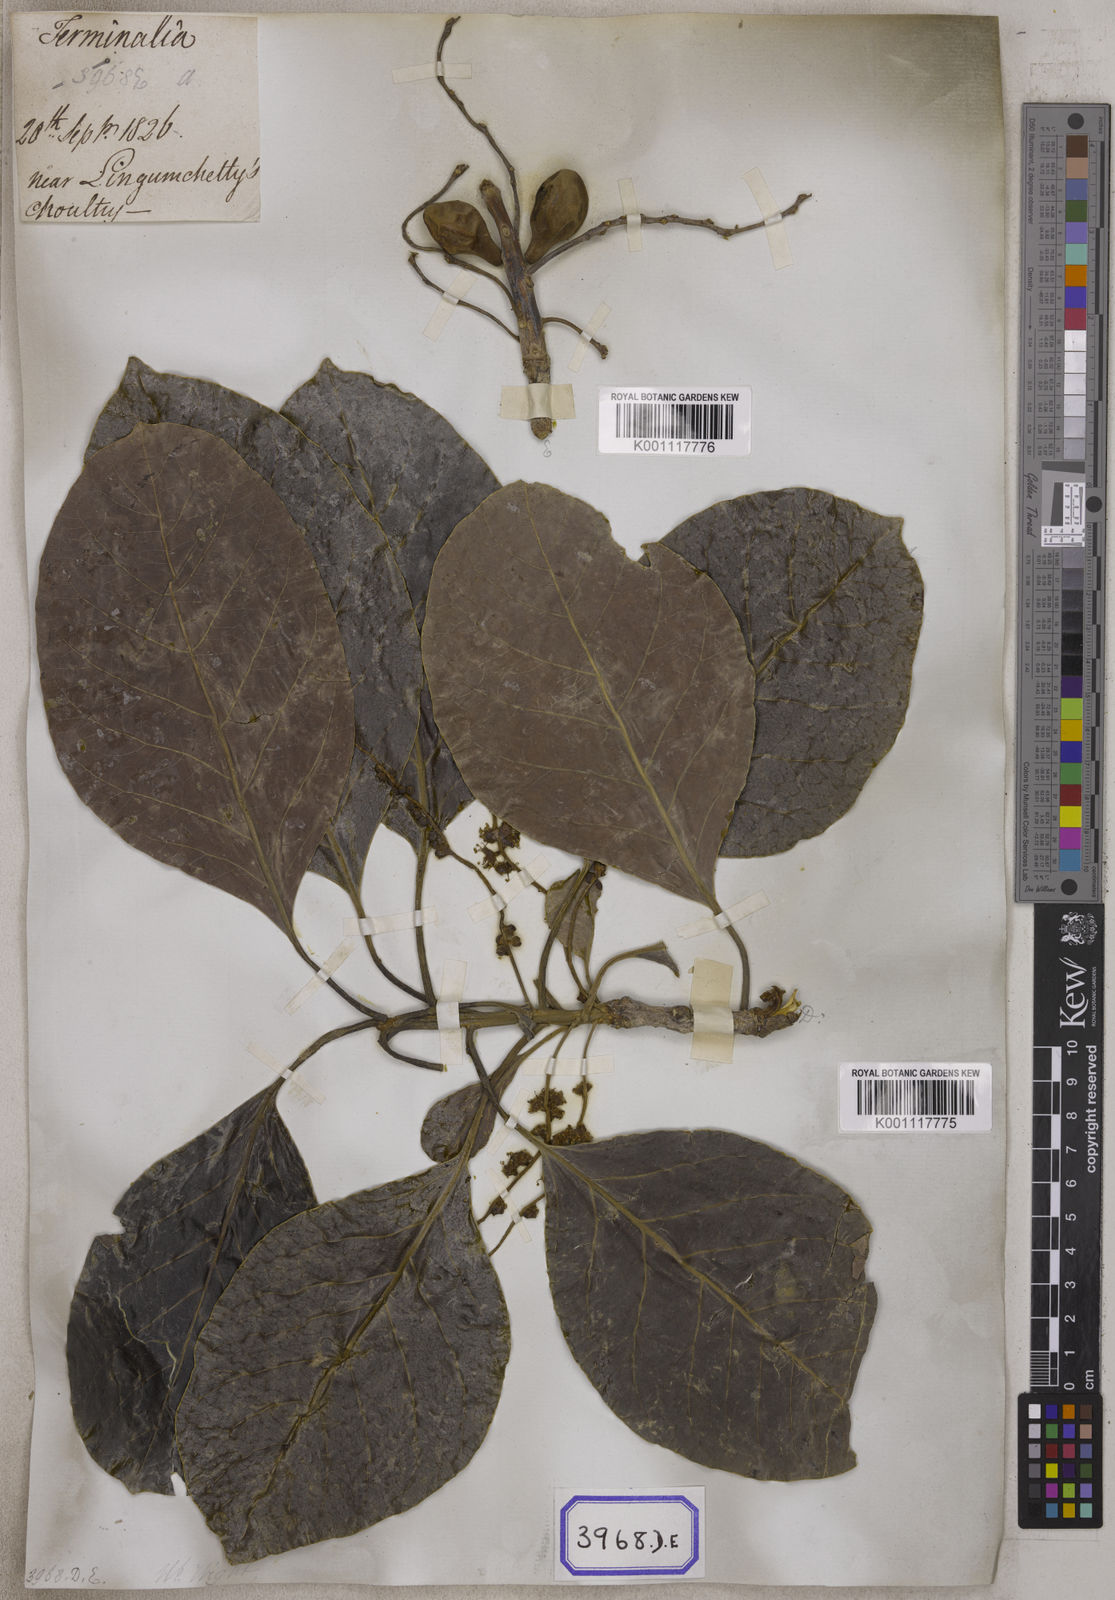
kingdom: Plantae
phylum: Tracheophyta
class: Magnoliopsida
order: Myrtales
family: Combretaceae
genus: Terminalia
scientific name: Terminalia bellirica
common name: Beleric myrobalan
